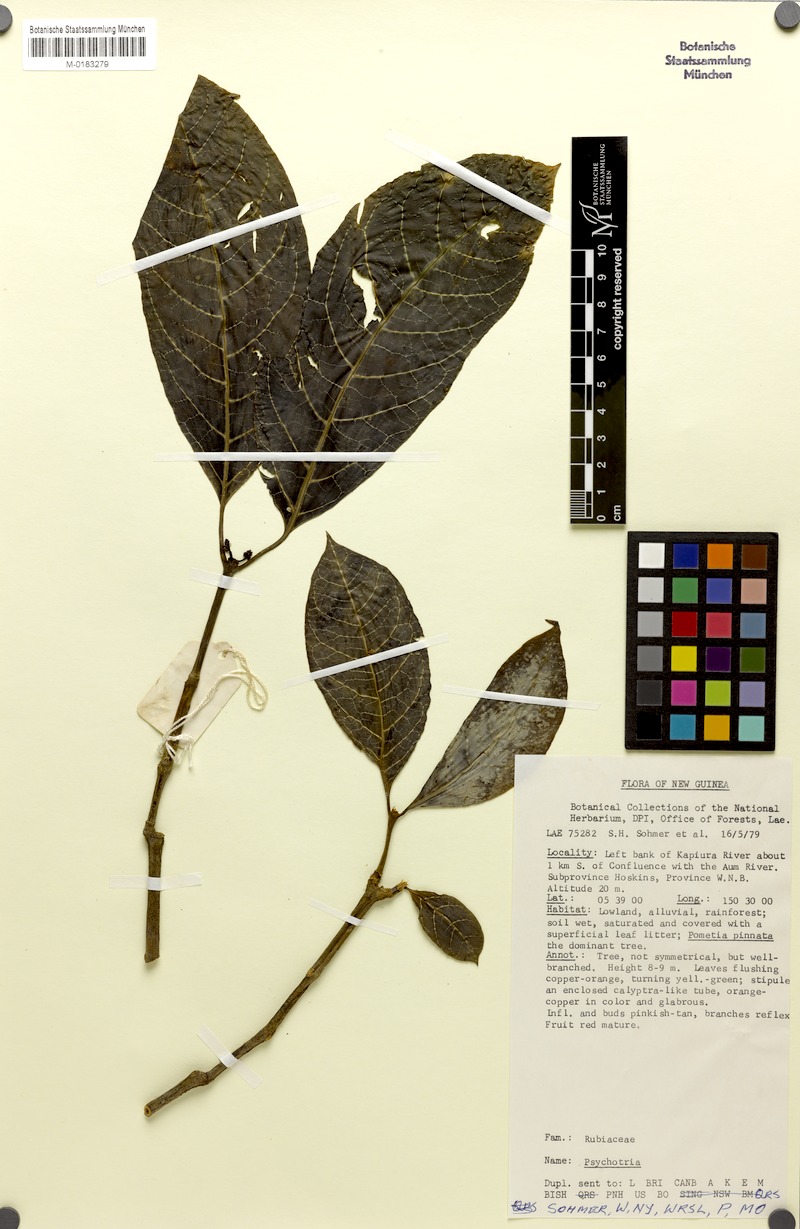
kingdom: Plantae
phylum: Tracheophyta
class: Magnoliopsida
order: Gentianales
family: Rubiaceae
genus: Eumachia
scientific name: Eumachia damasiana
